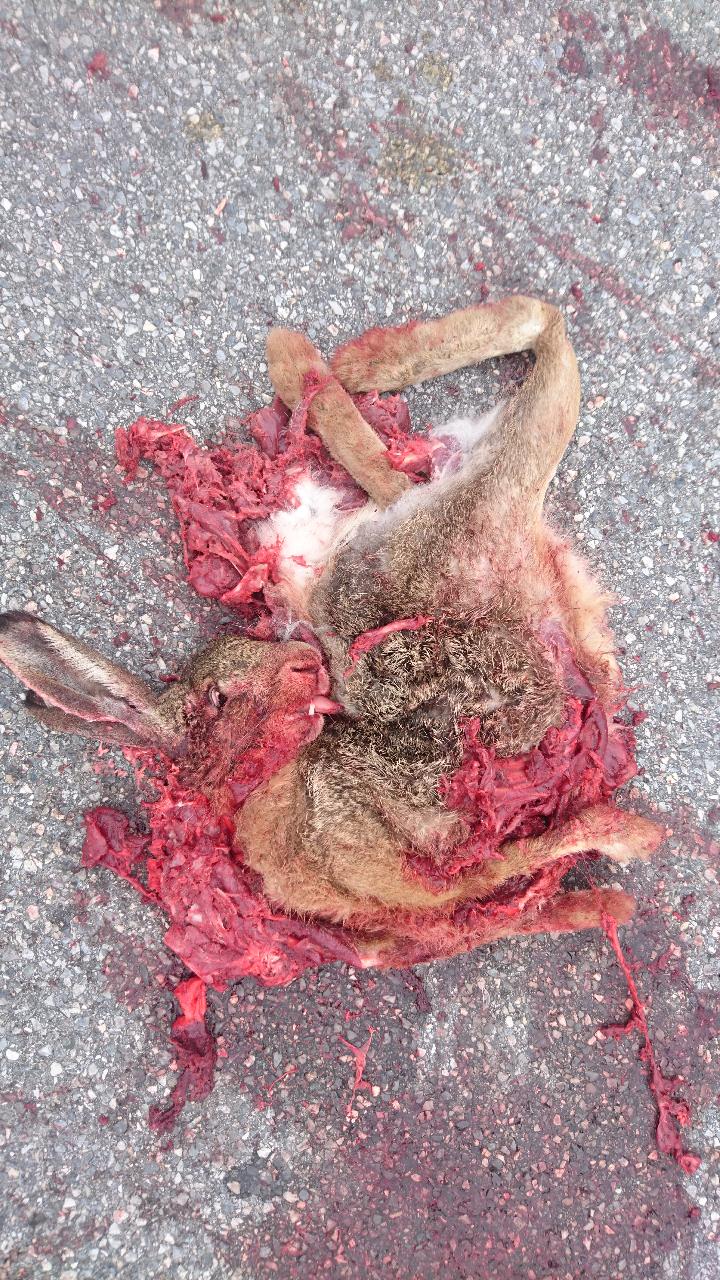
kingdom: Animalia
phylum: Chordata
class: Mammalia
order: Lagomorpha
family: Leporidae
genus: Lepus
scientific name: Lepus europaeus
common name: European hare
